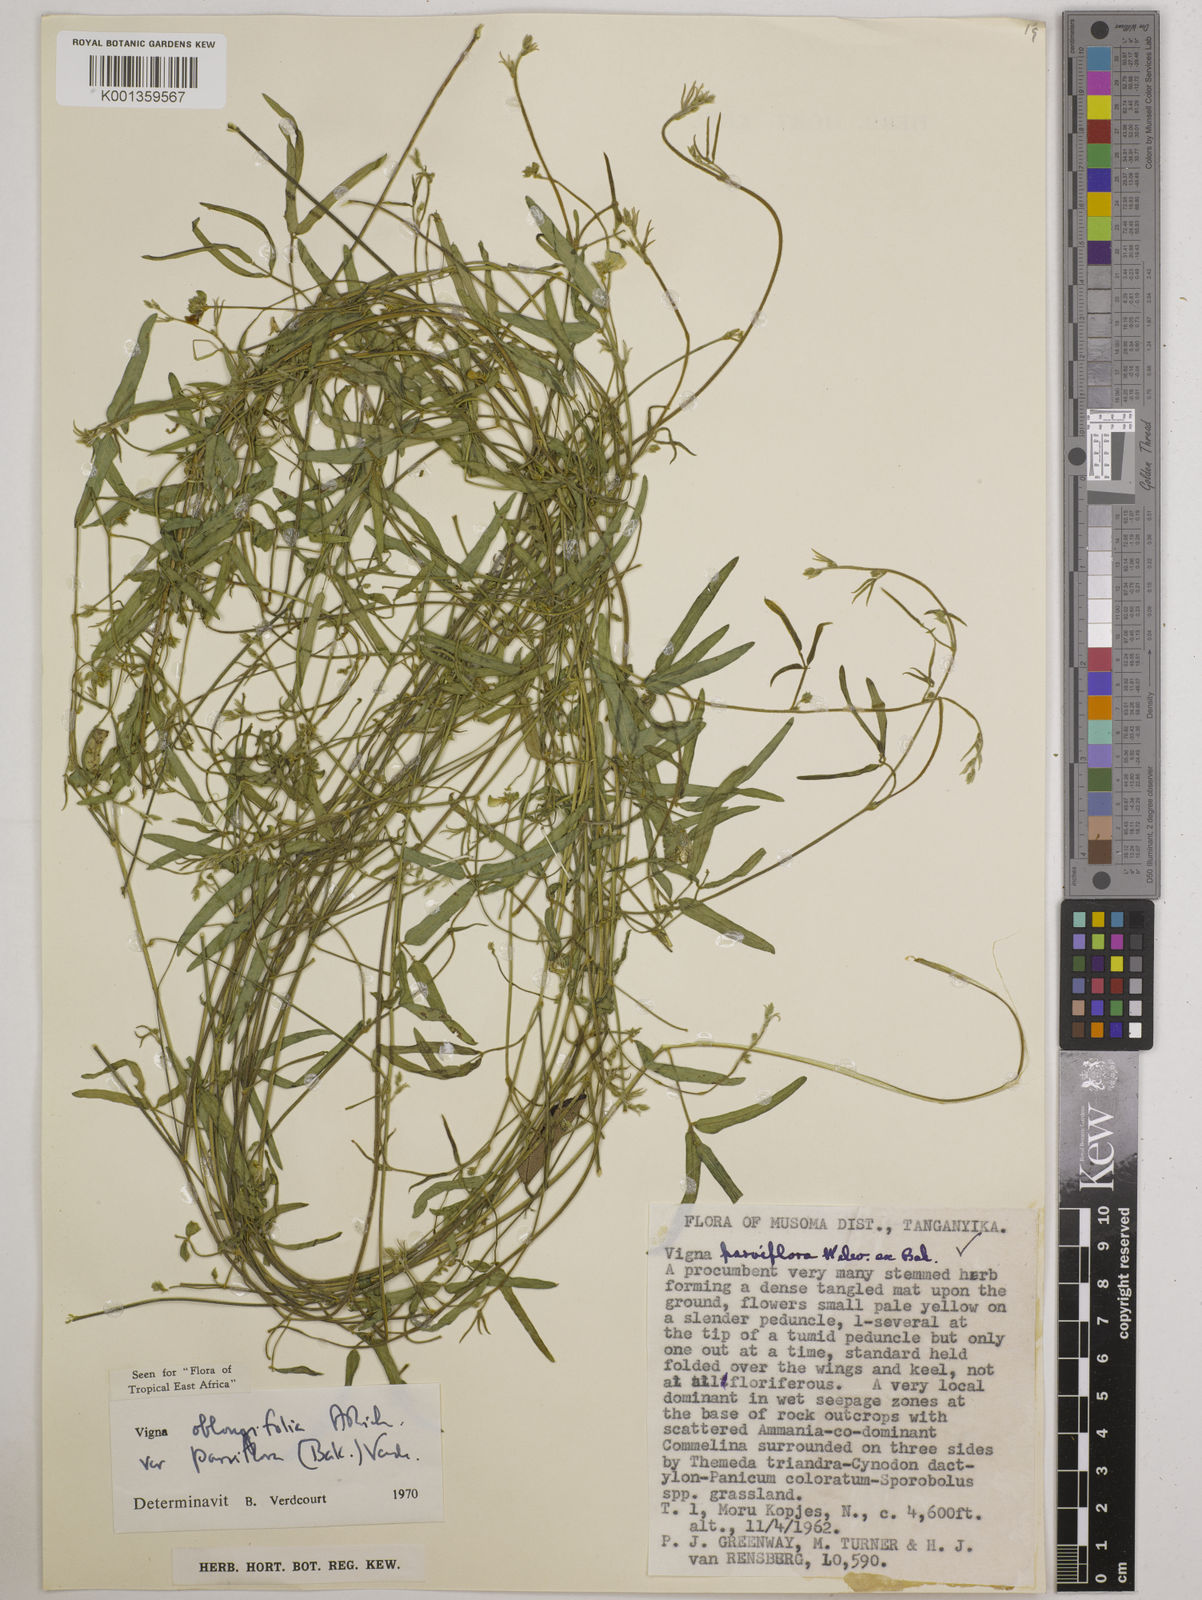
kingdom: Plantae
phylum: Tracheophyta
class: Magnoliopsida
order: Fabales
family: Fabaceae
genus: Vigna
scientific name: Vigna
